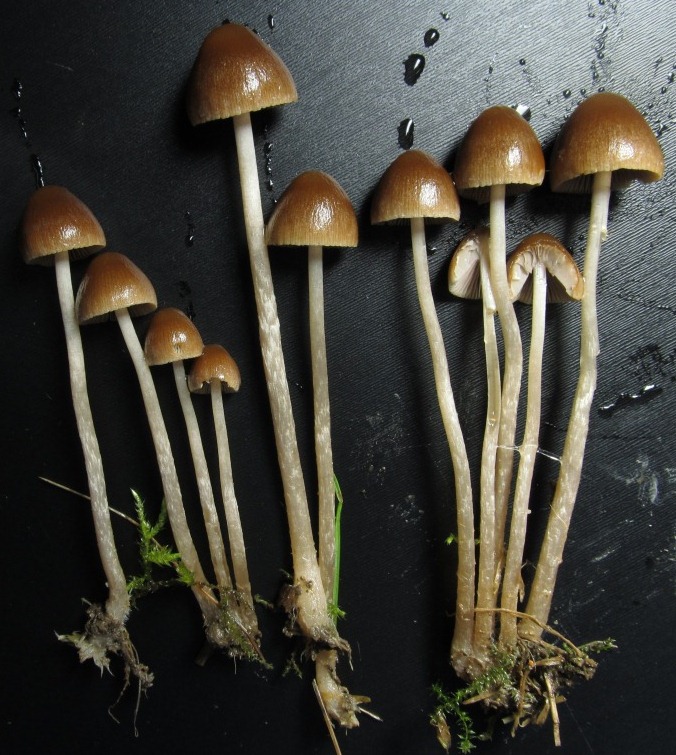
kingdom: Fungi
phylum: Basidiomycota
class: Agaricomycetes
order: Agaricales
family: Psathyrellaceae
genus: Psathyrella
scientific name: Psathyrella microrhiza
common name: rod-mørkhat
